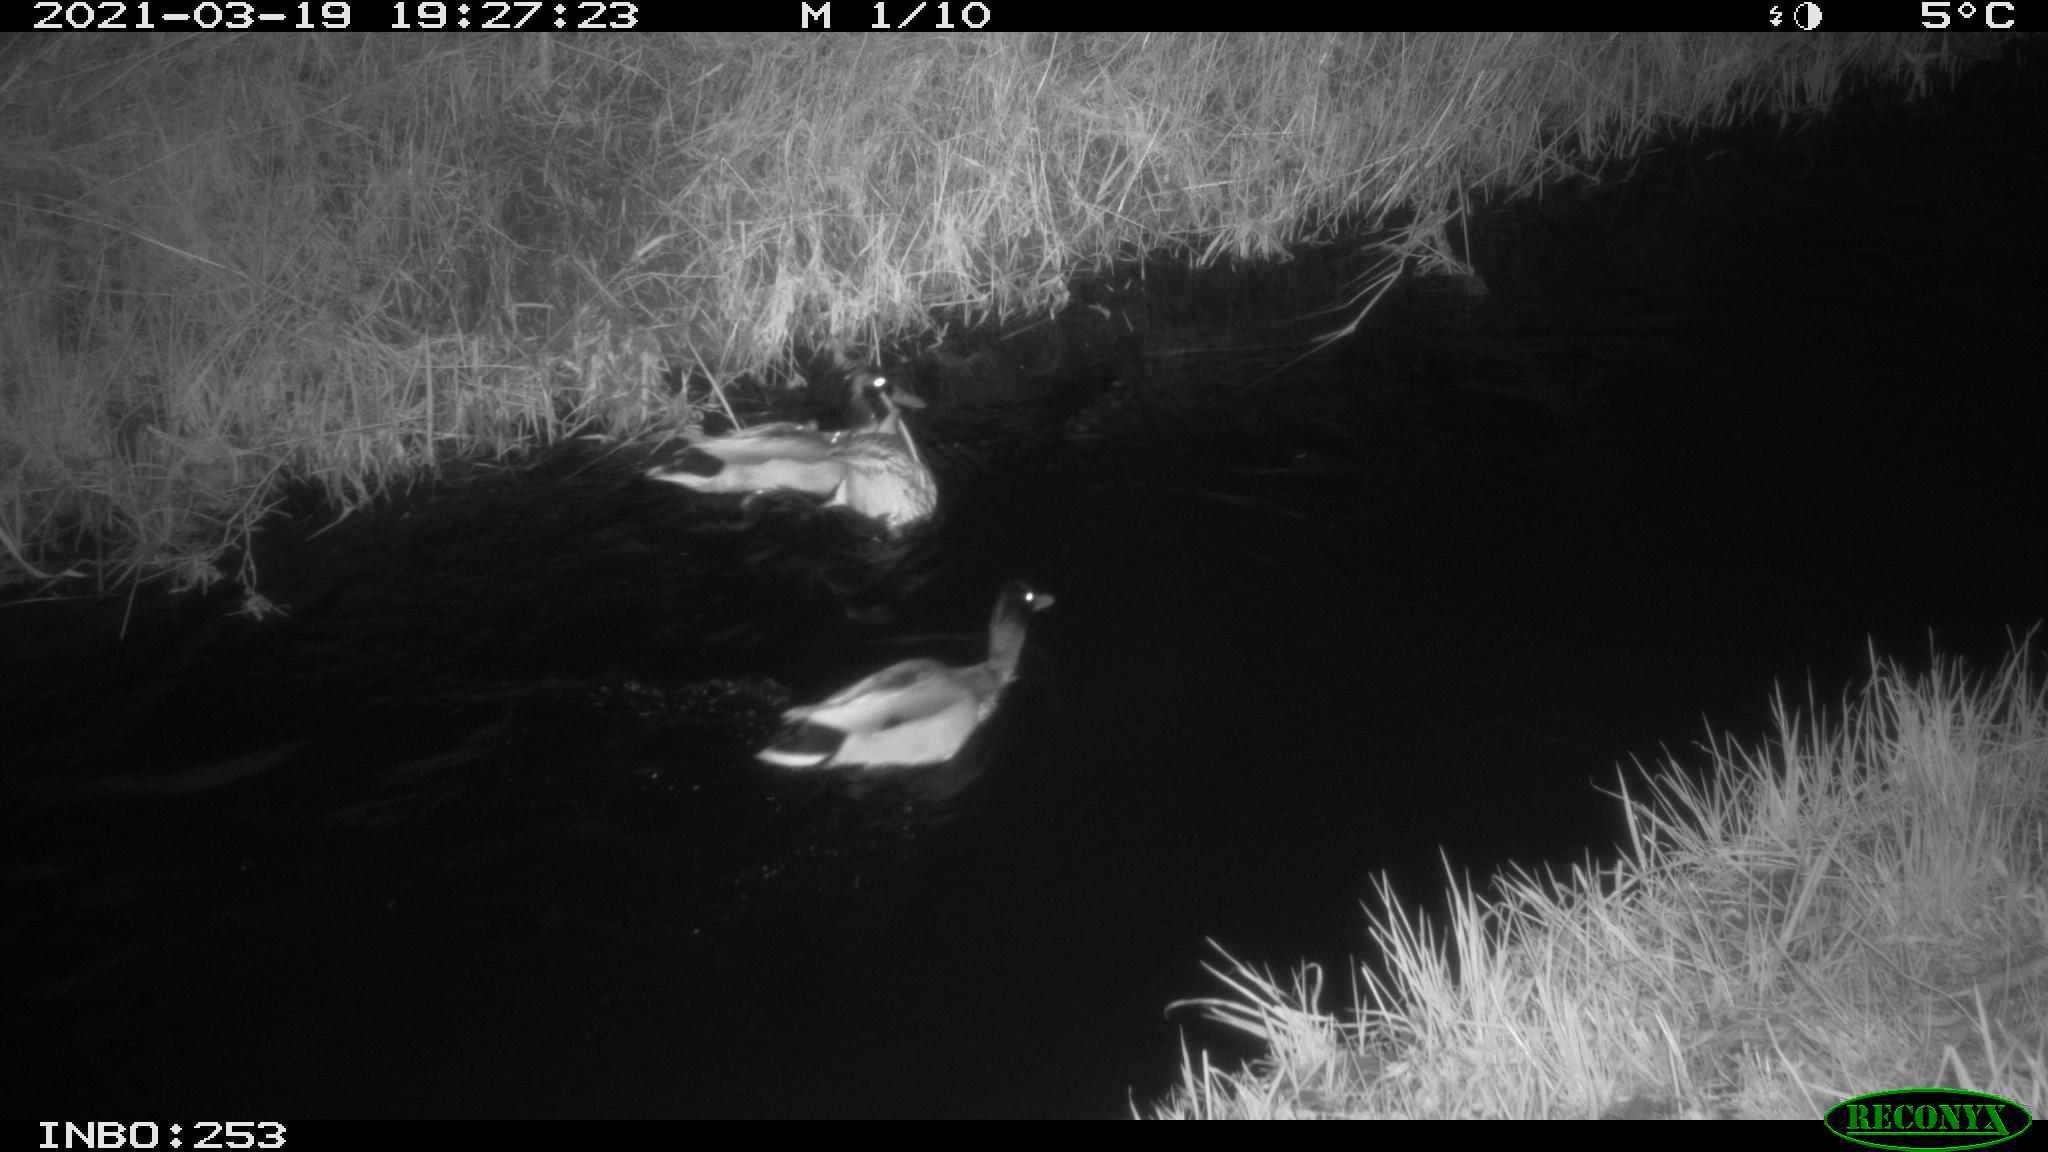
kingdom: Animalia
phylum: Chordata
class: Aves
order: Anseriformes
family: Anatidae
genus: Anas
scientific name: Anas platyrhynchos
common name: Mallard
